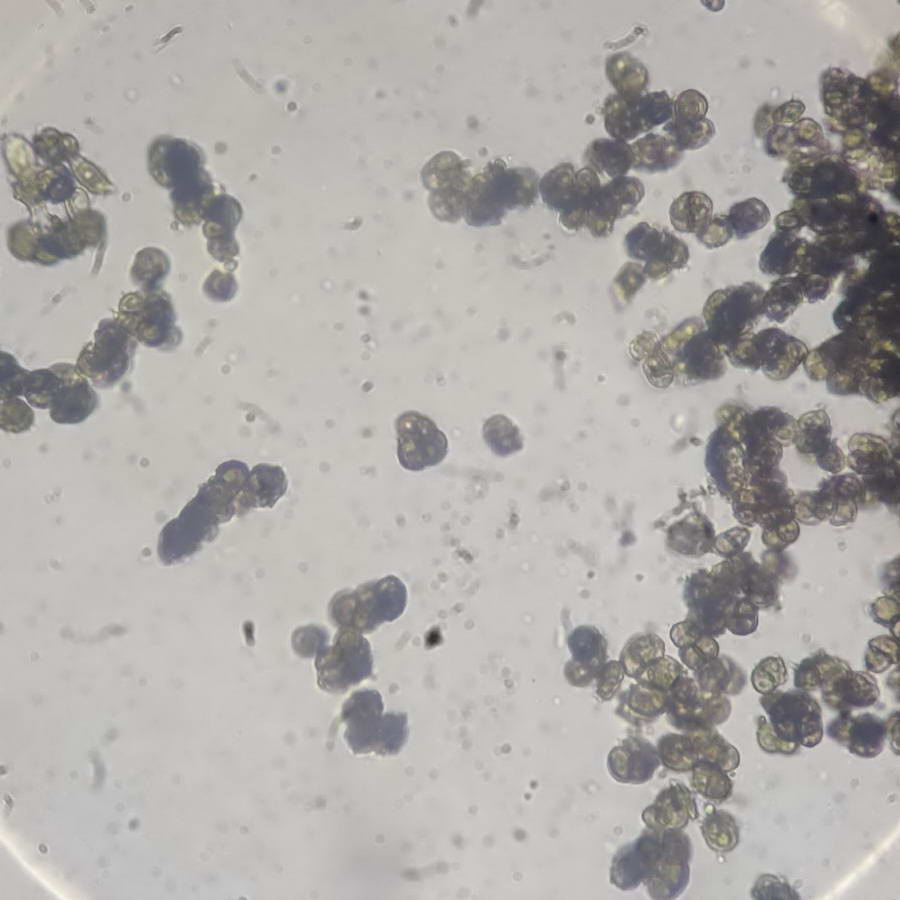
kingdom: Fungi
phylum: Ascomycota
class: Leotiomycetes
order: Helotiales
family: Mollisiaceae
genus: Trimmatostroma
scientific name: Trimmatostroma betulinum
